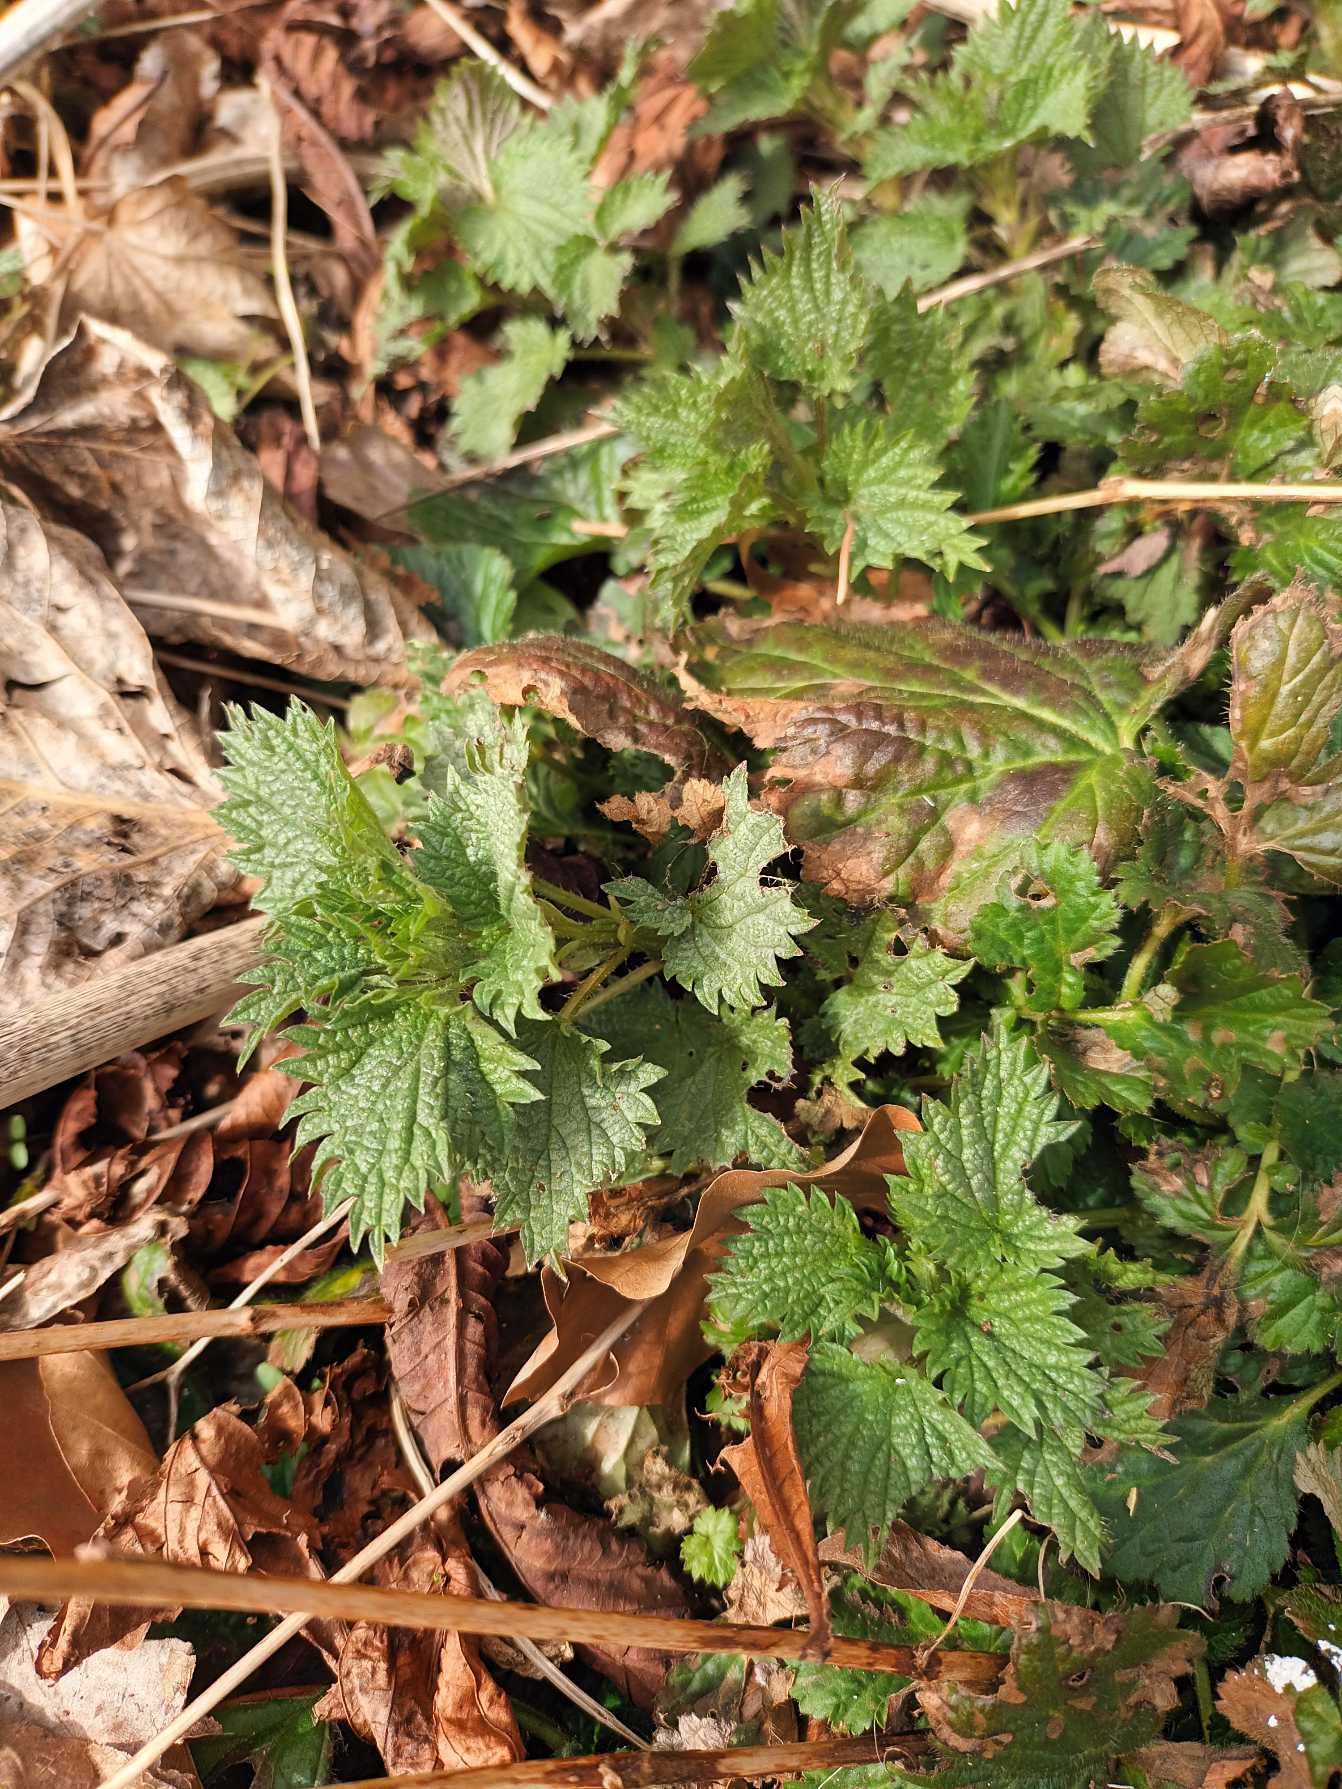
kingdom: Plantae
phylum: Tracheophyta
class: Magnoliopsida
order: Rosales
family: Urticaceae
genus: Urtica
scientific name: Urtica dioica
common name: Stor nælde
